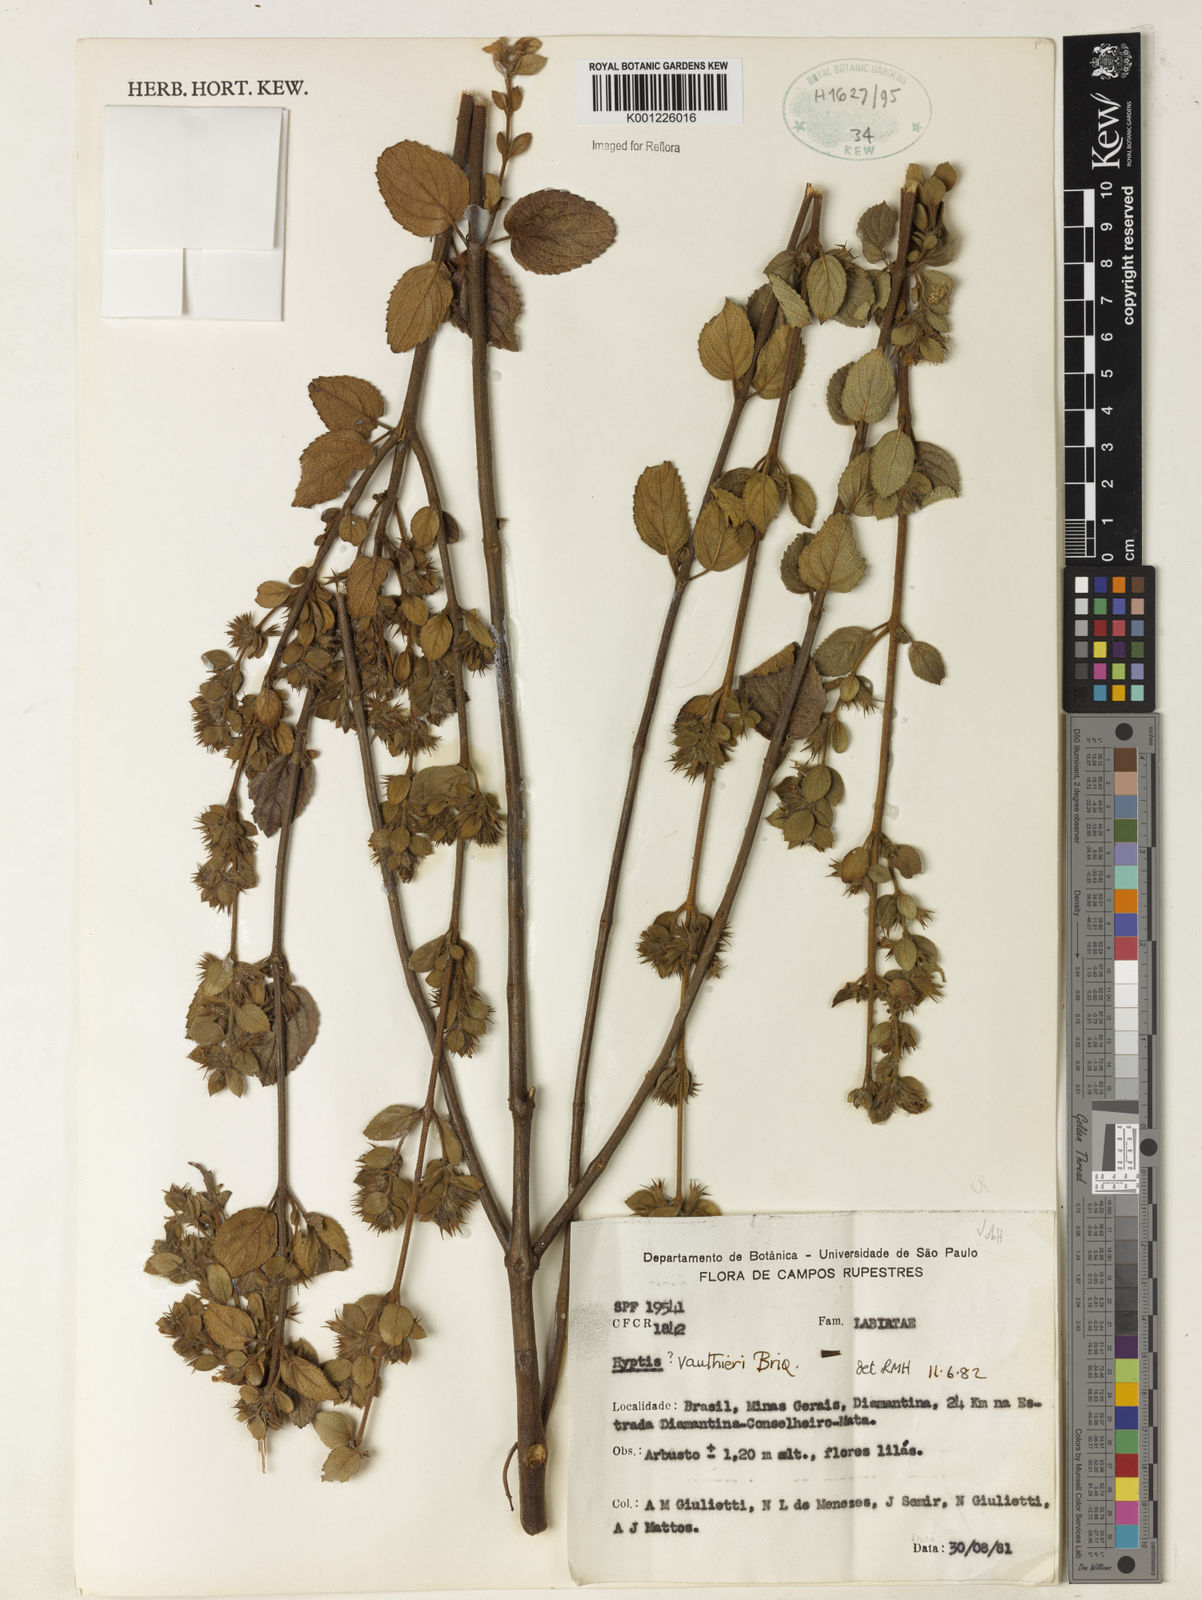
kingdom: Plantae
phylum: Tracheophyta
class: Magnoliopsida
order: Lamiales
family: Lamiaceae
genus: Hyptidendron
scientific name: Hyptidendron vauthieri
